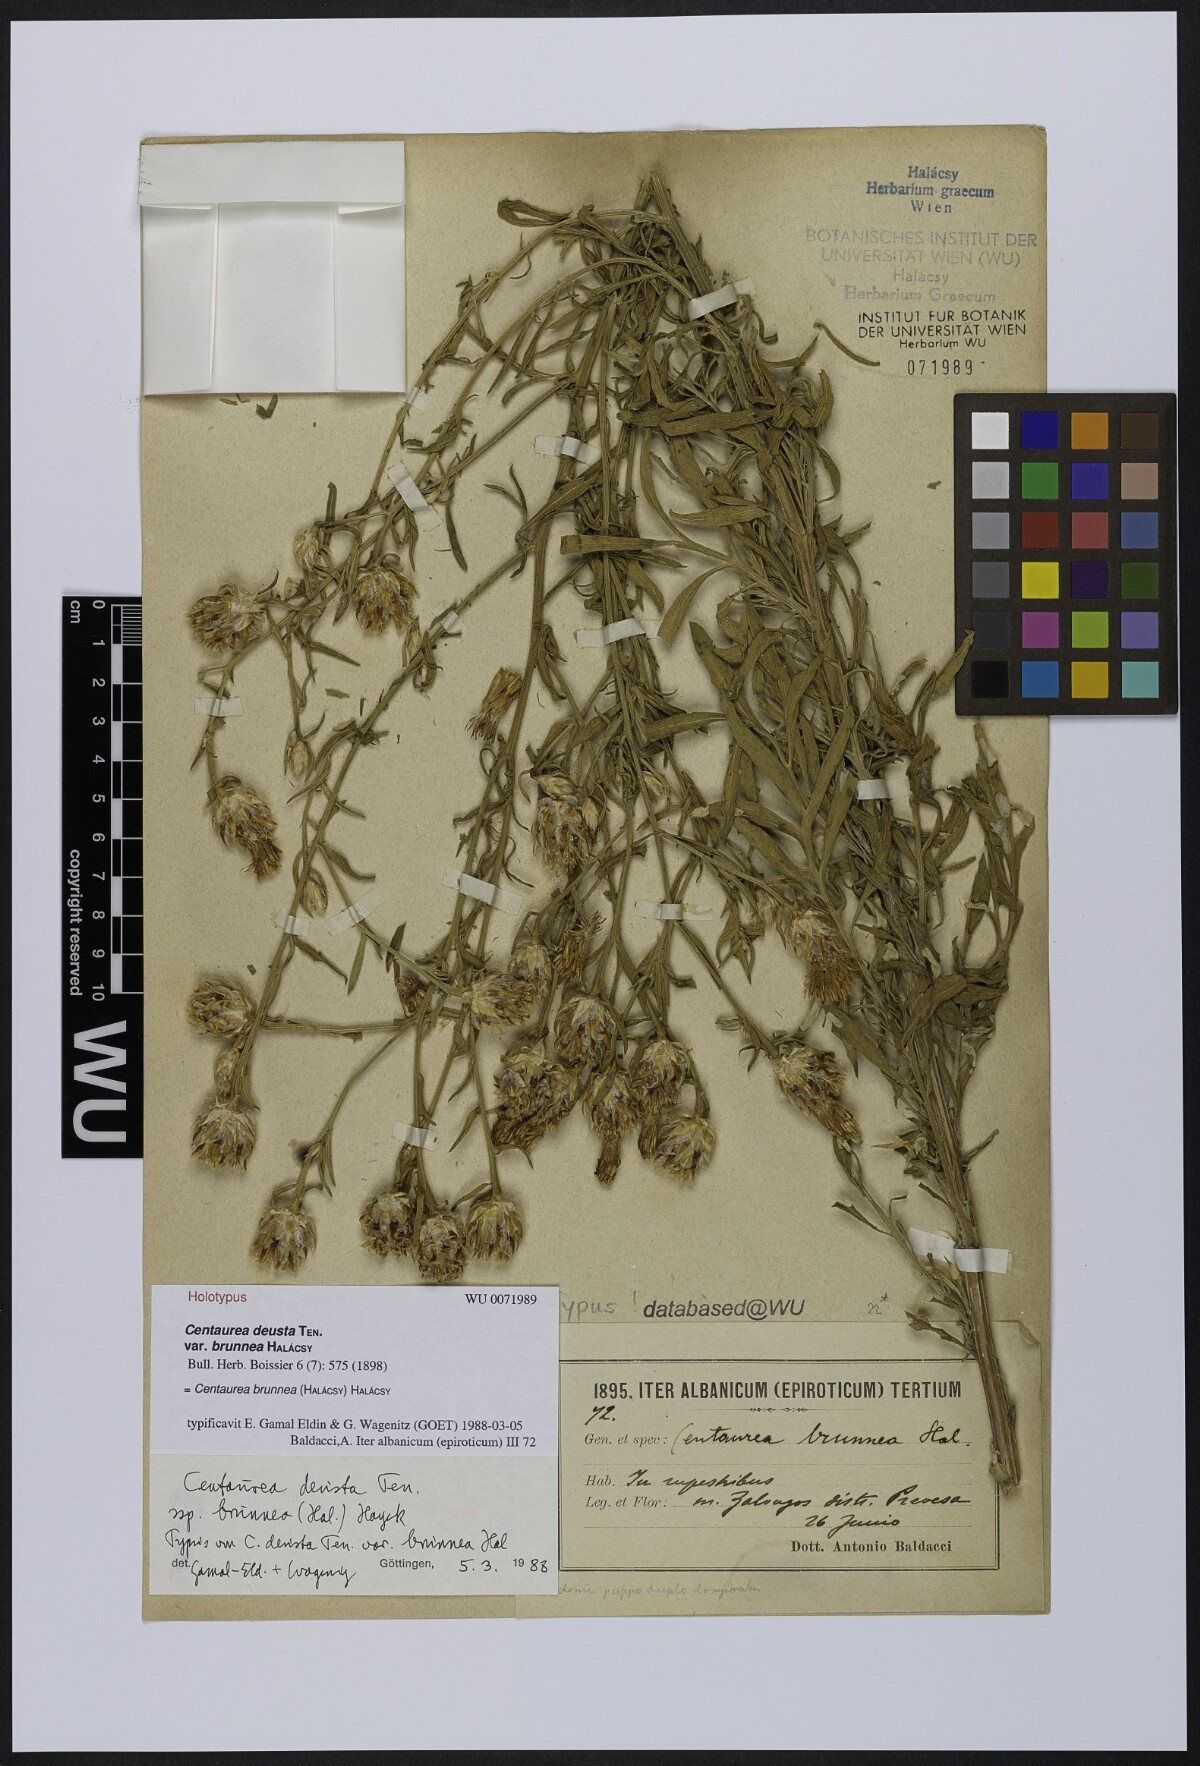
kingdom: Plantae
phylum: Tracheophyta
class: Magnoliopsida
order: Asterales
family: Asteraceae
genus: Centaurea
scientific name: Centaurea brunnea
